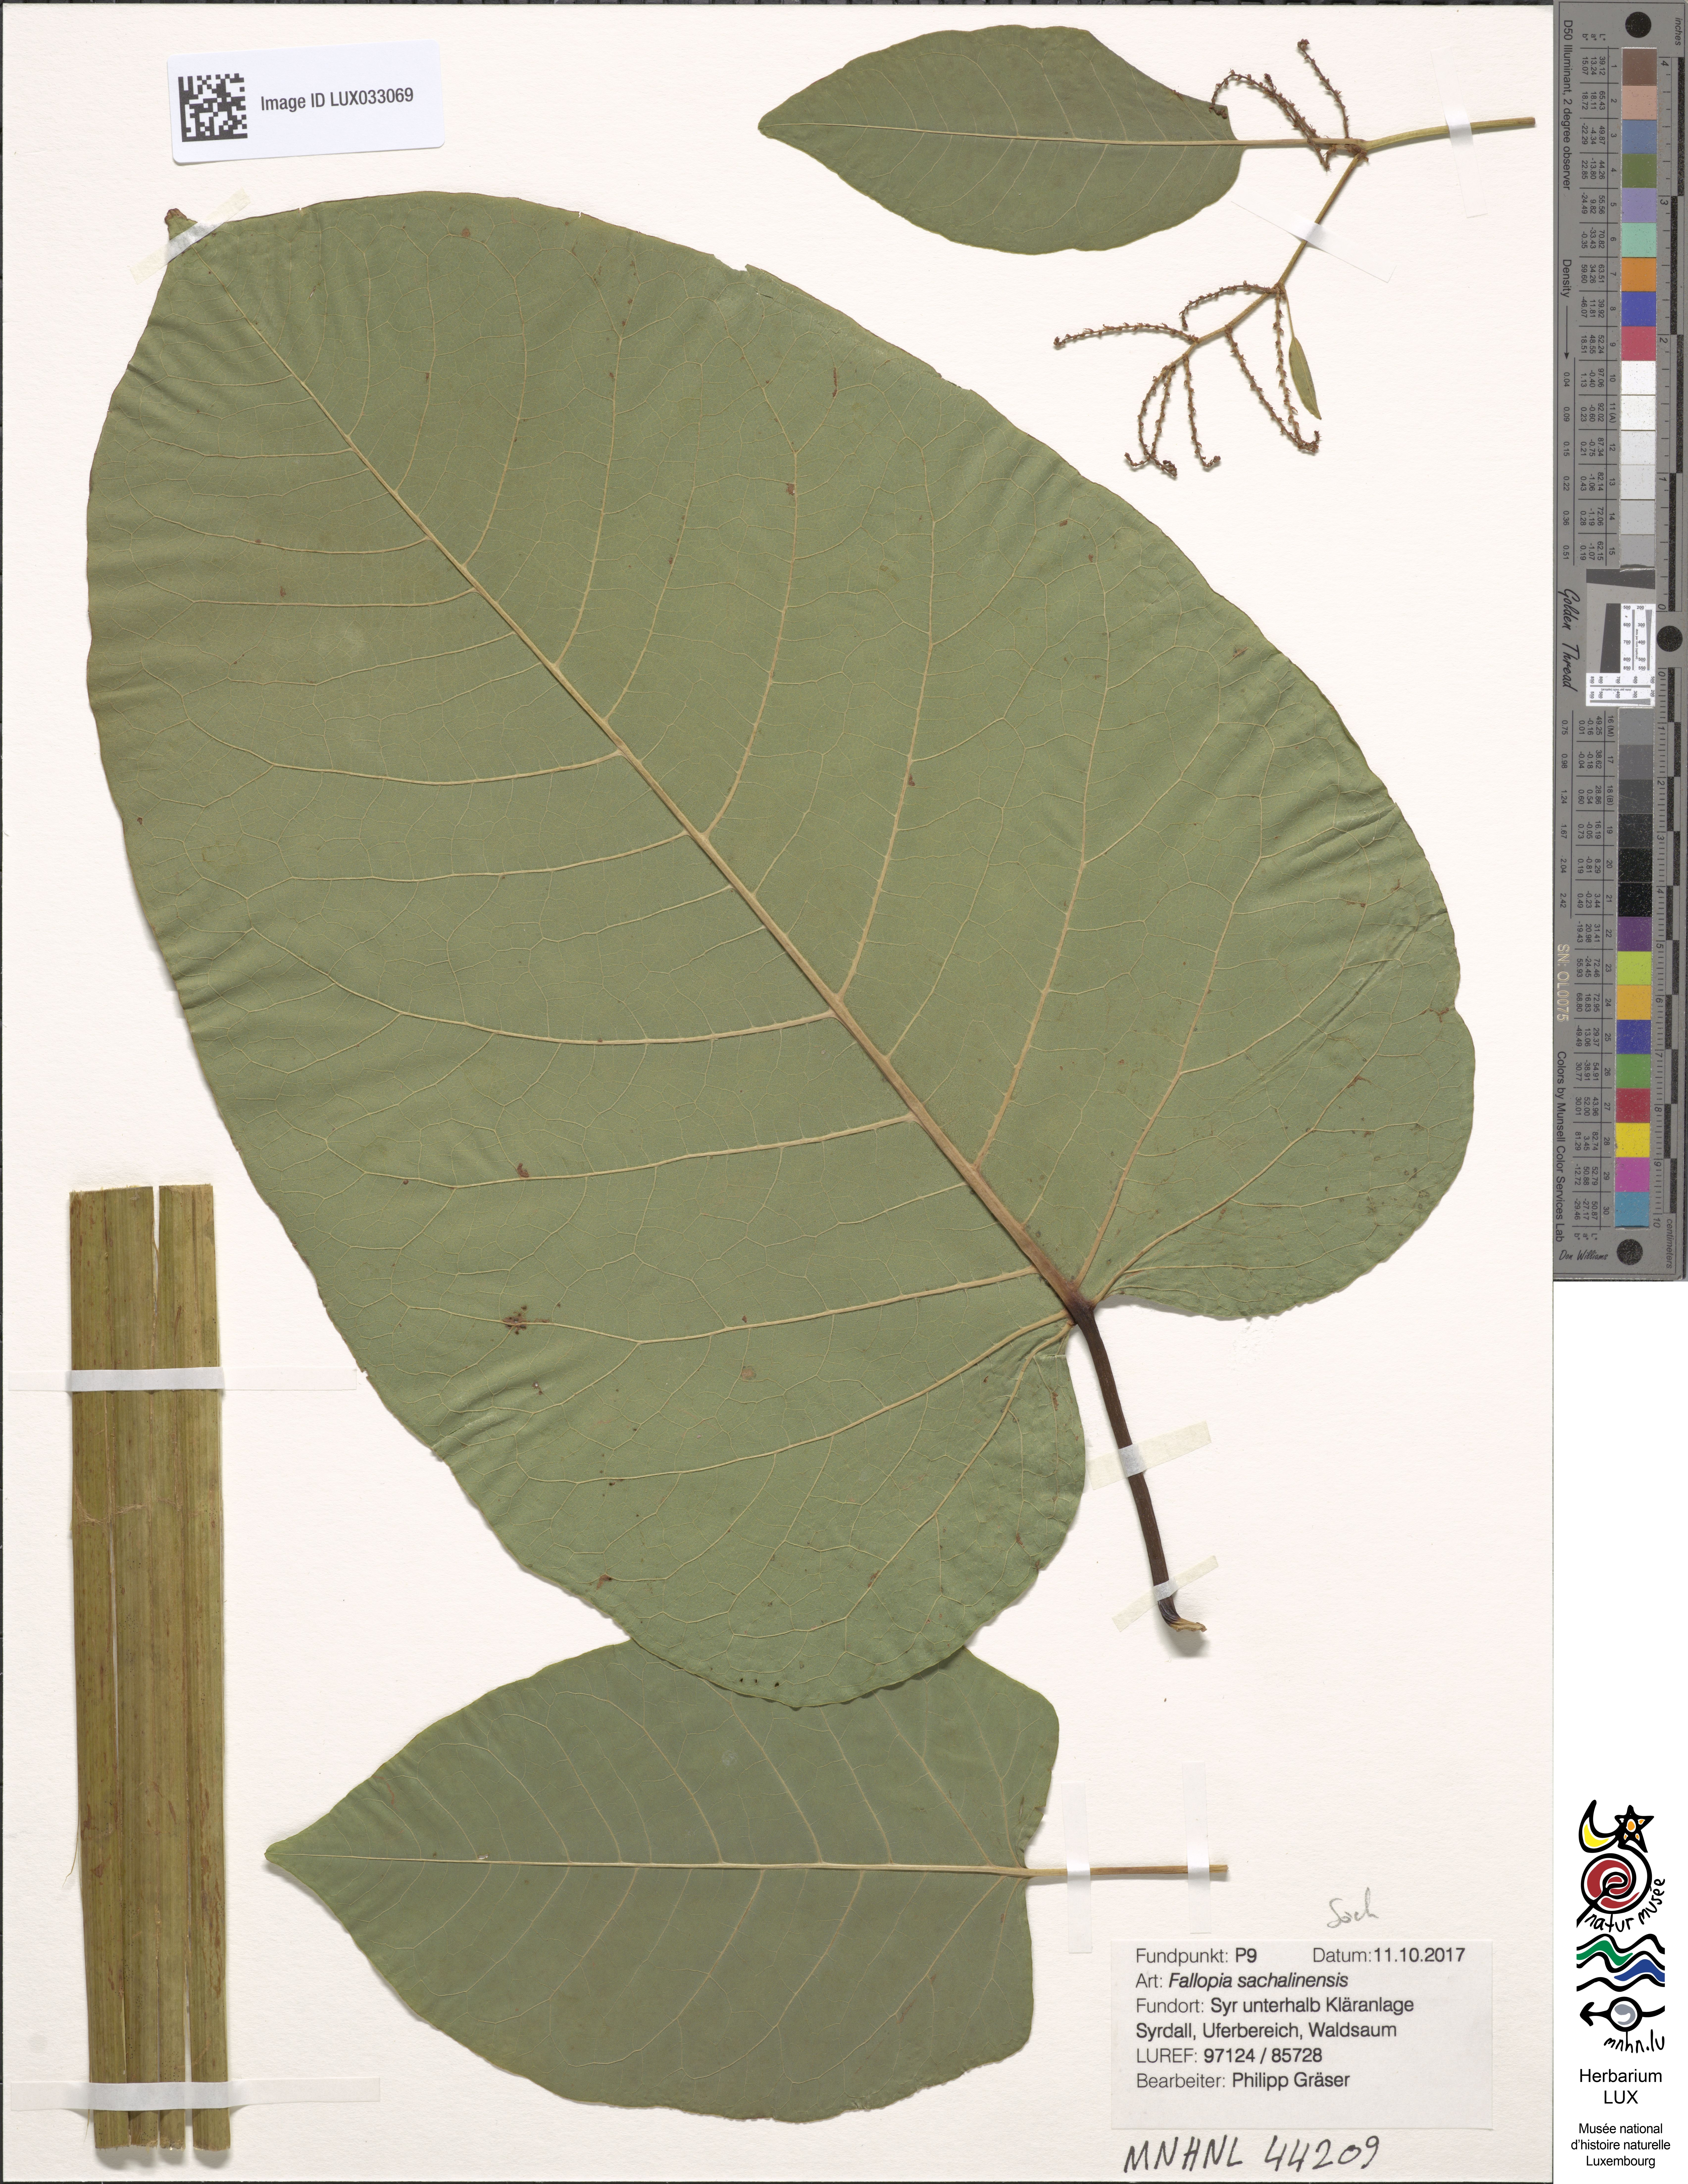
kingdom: Plantae
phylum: Tracheophyta
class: Magnoliopsida
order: Caryophyllales
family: Polygonaceae
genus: Reynoutria
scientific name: Reynoutria sachalinensis
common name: Giant knotweed
